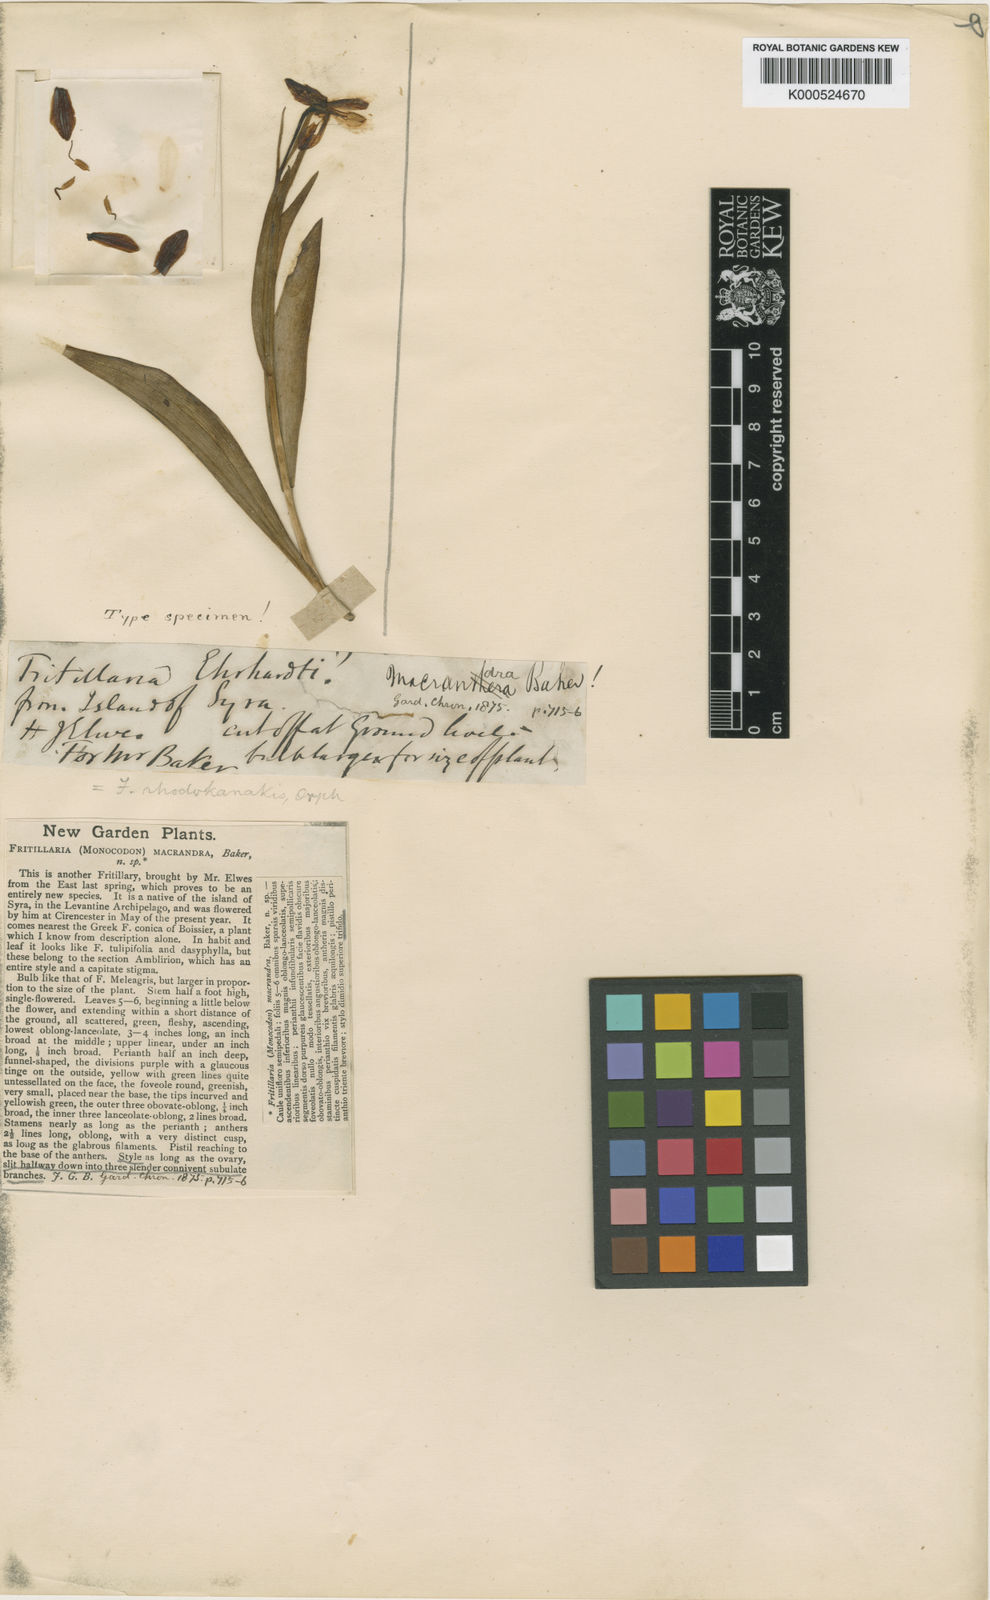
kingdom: Plantae
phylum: Tracheophyta
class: Liliopsida
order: Liliales
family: Liliaceae
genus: Fritillaria
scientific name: Fritillaria ehrhartii
